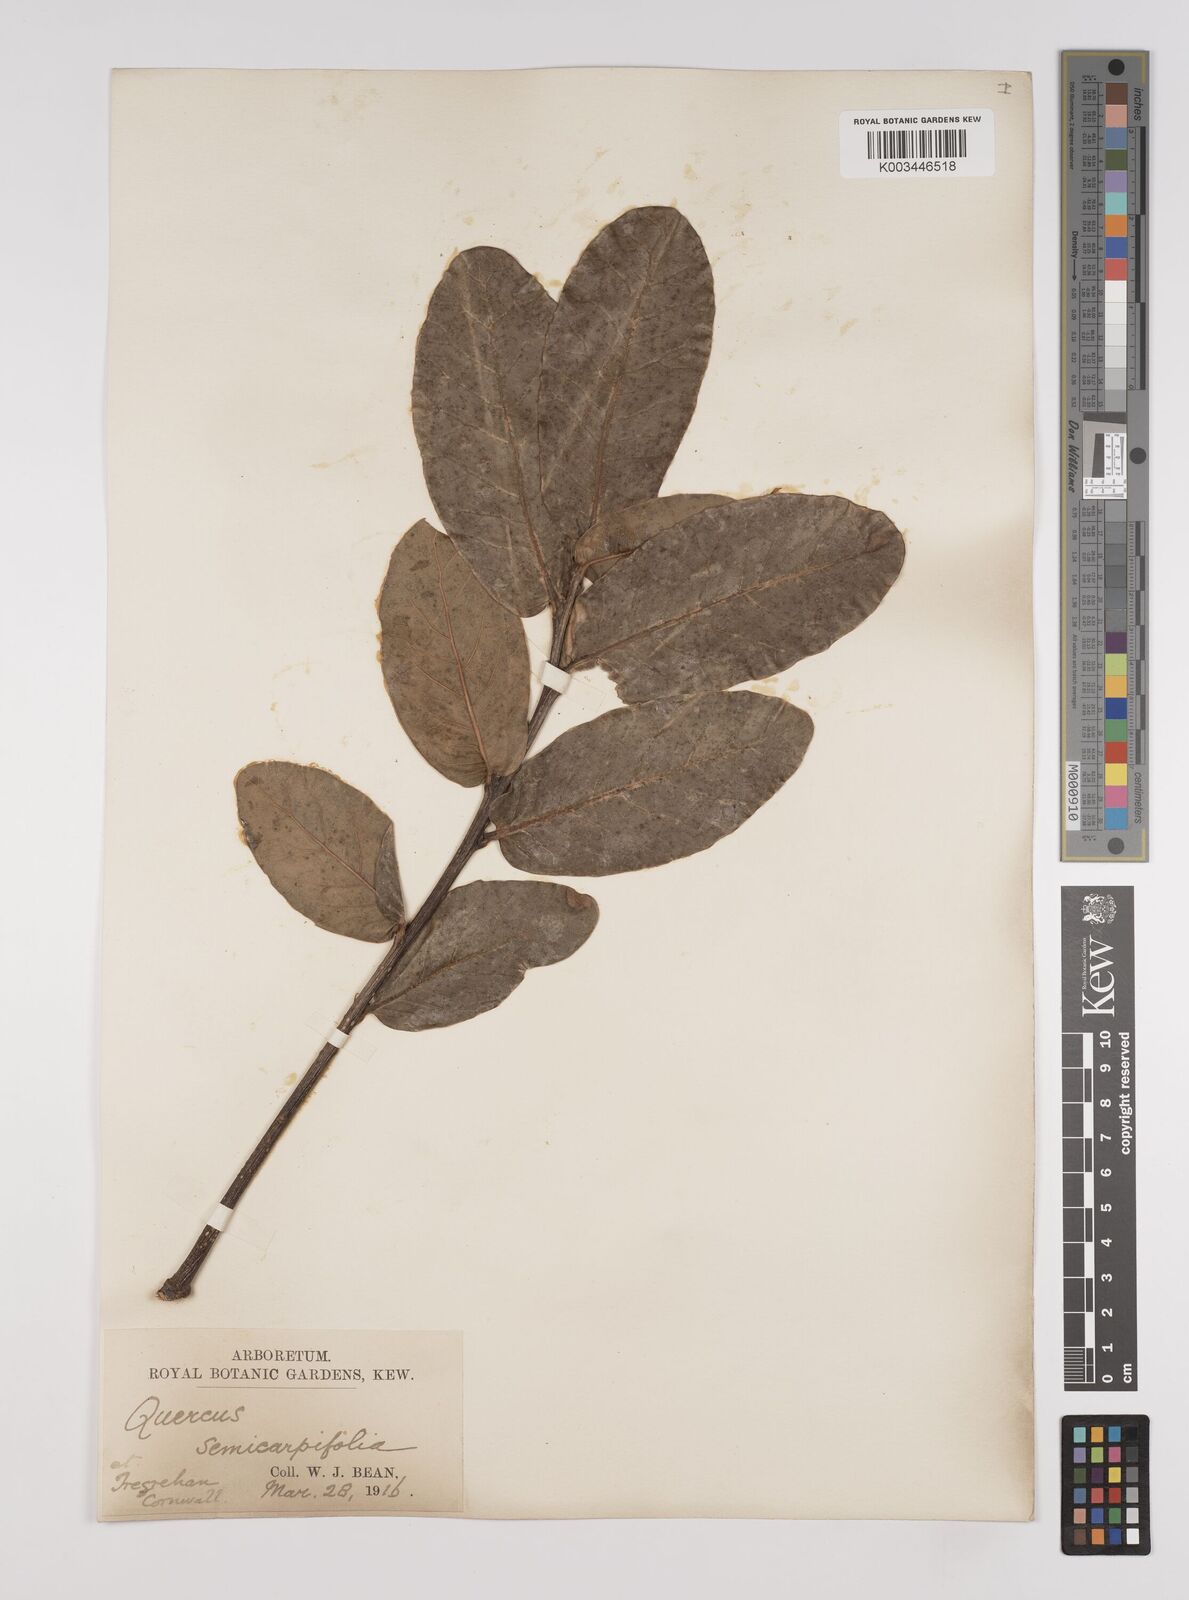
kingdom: Plantae
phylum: Tracheophyta
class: Magnoliopsida
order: Fagales
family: Fagaceae
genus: Quercus
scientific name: Quercus semecarpifolia
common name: Brown oak
